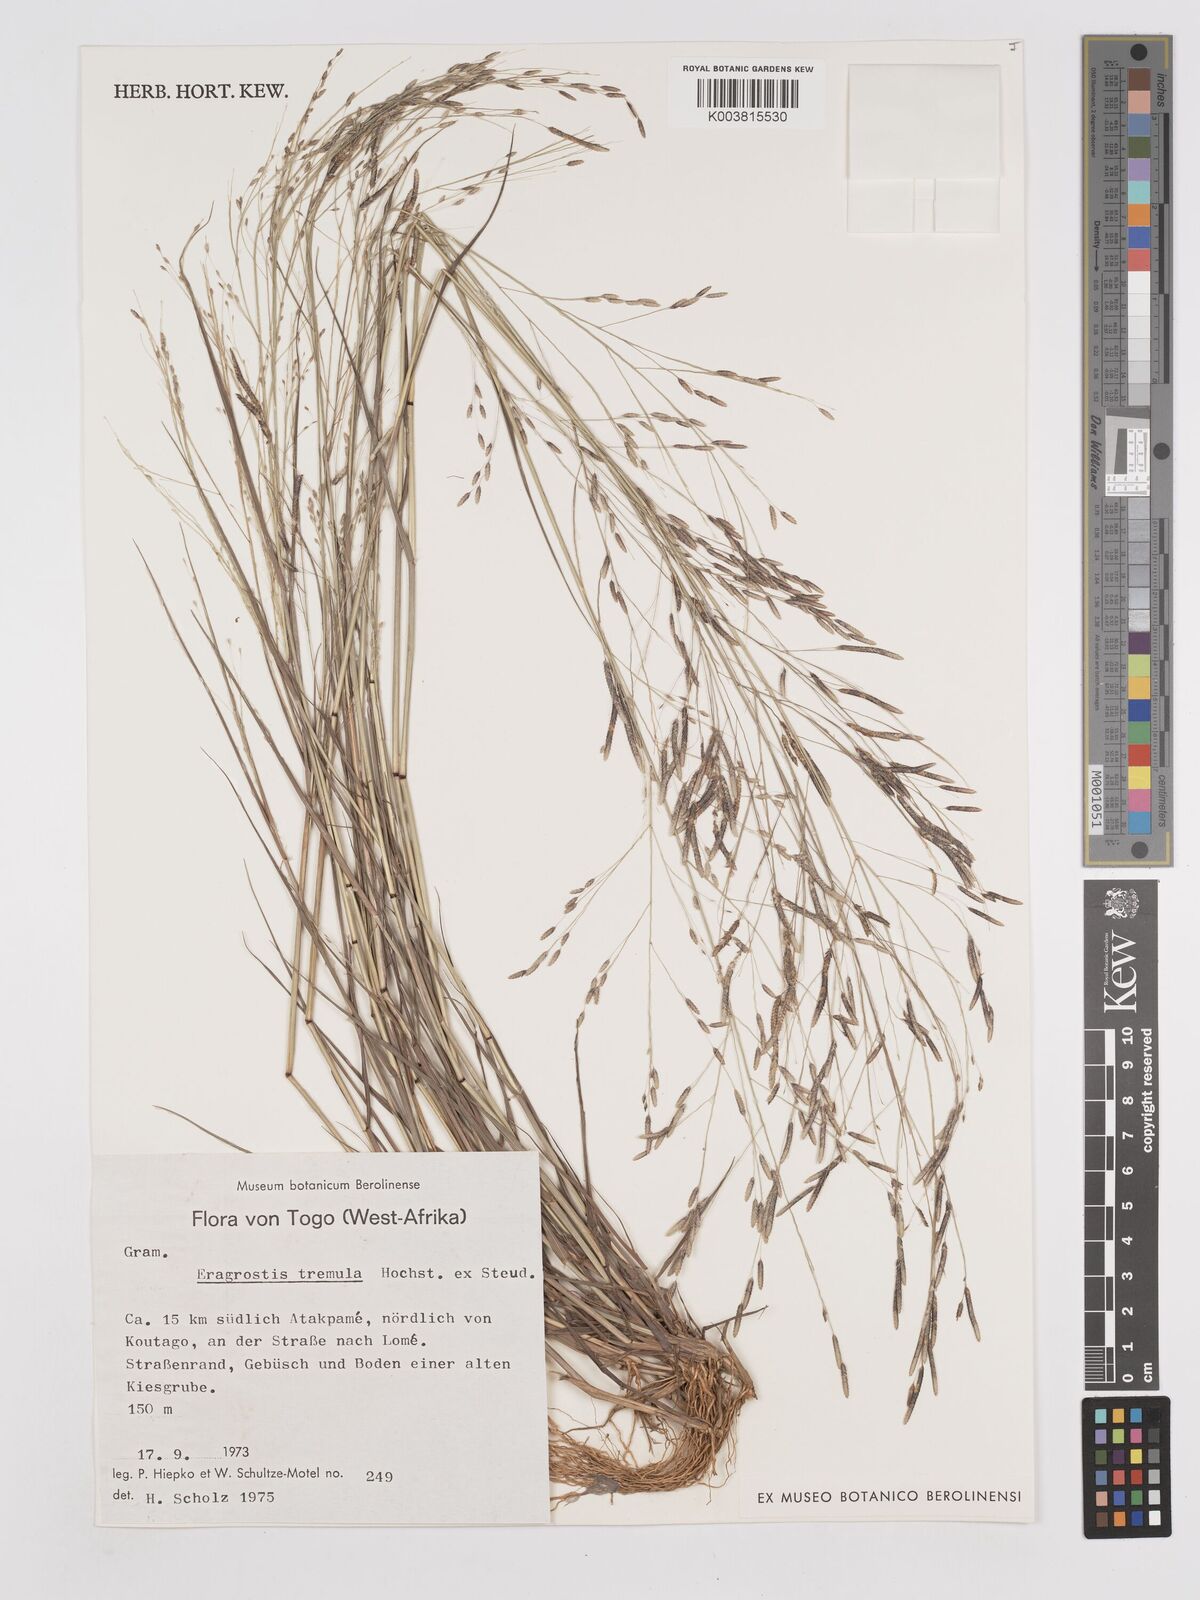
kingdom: Plantae
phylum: Tracheophyta
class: Liliopsida
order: Poales
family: Poaceae
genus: Eragrostis
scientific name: Eragrostis tremula
